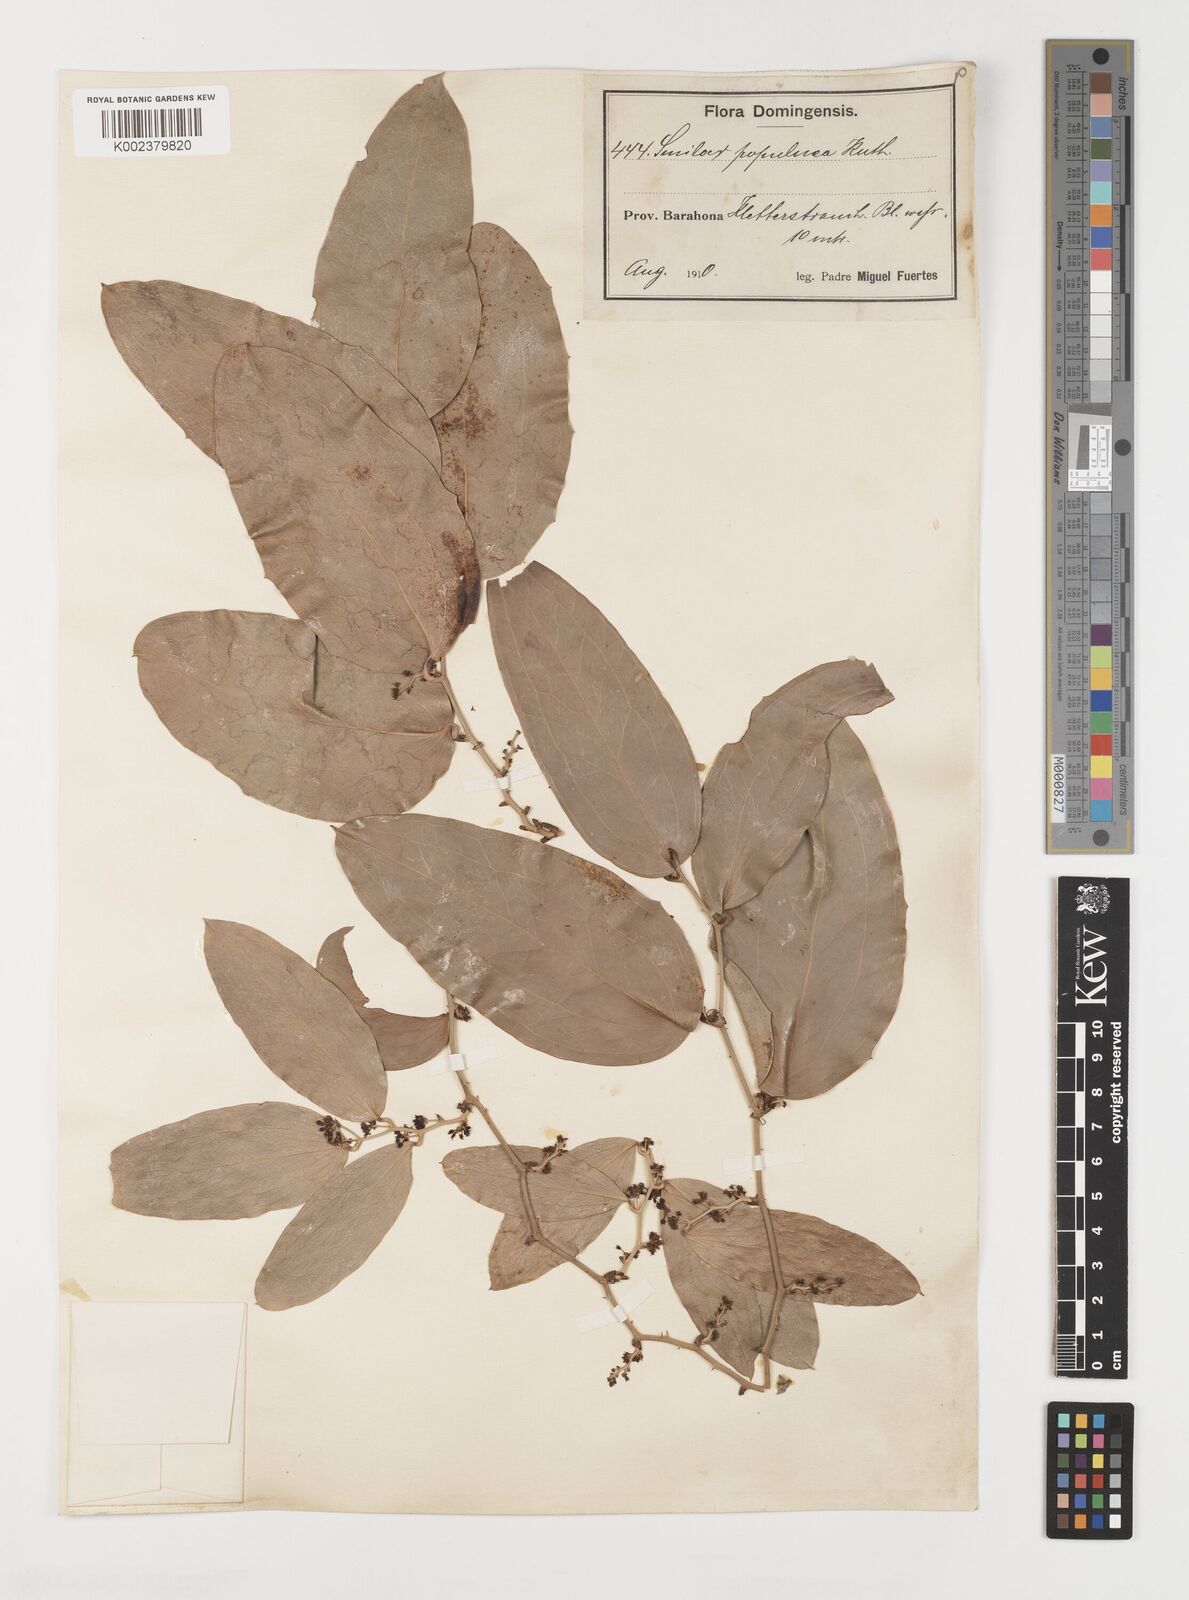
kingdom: Plantae
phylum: Tracheophyta
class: Liliopsida
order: Liliales
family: Smilacaceae
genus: Smilax
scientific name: Smilax populnea
